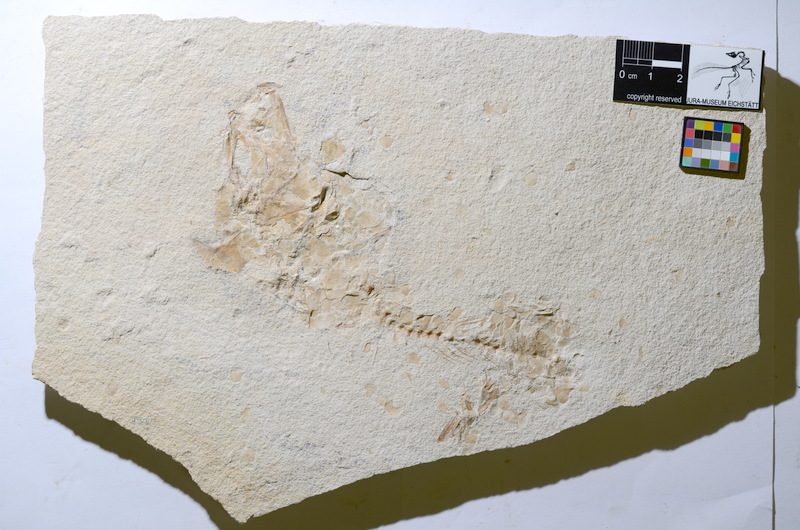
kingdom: Animalia
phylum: Chordata
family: Ascalaboidae
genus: Tharsis
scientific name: Tharsis
